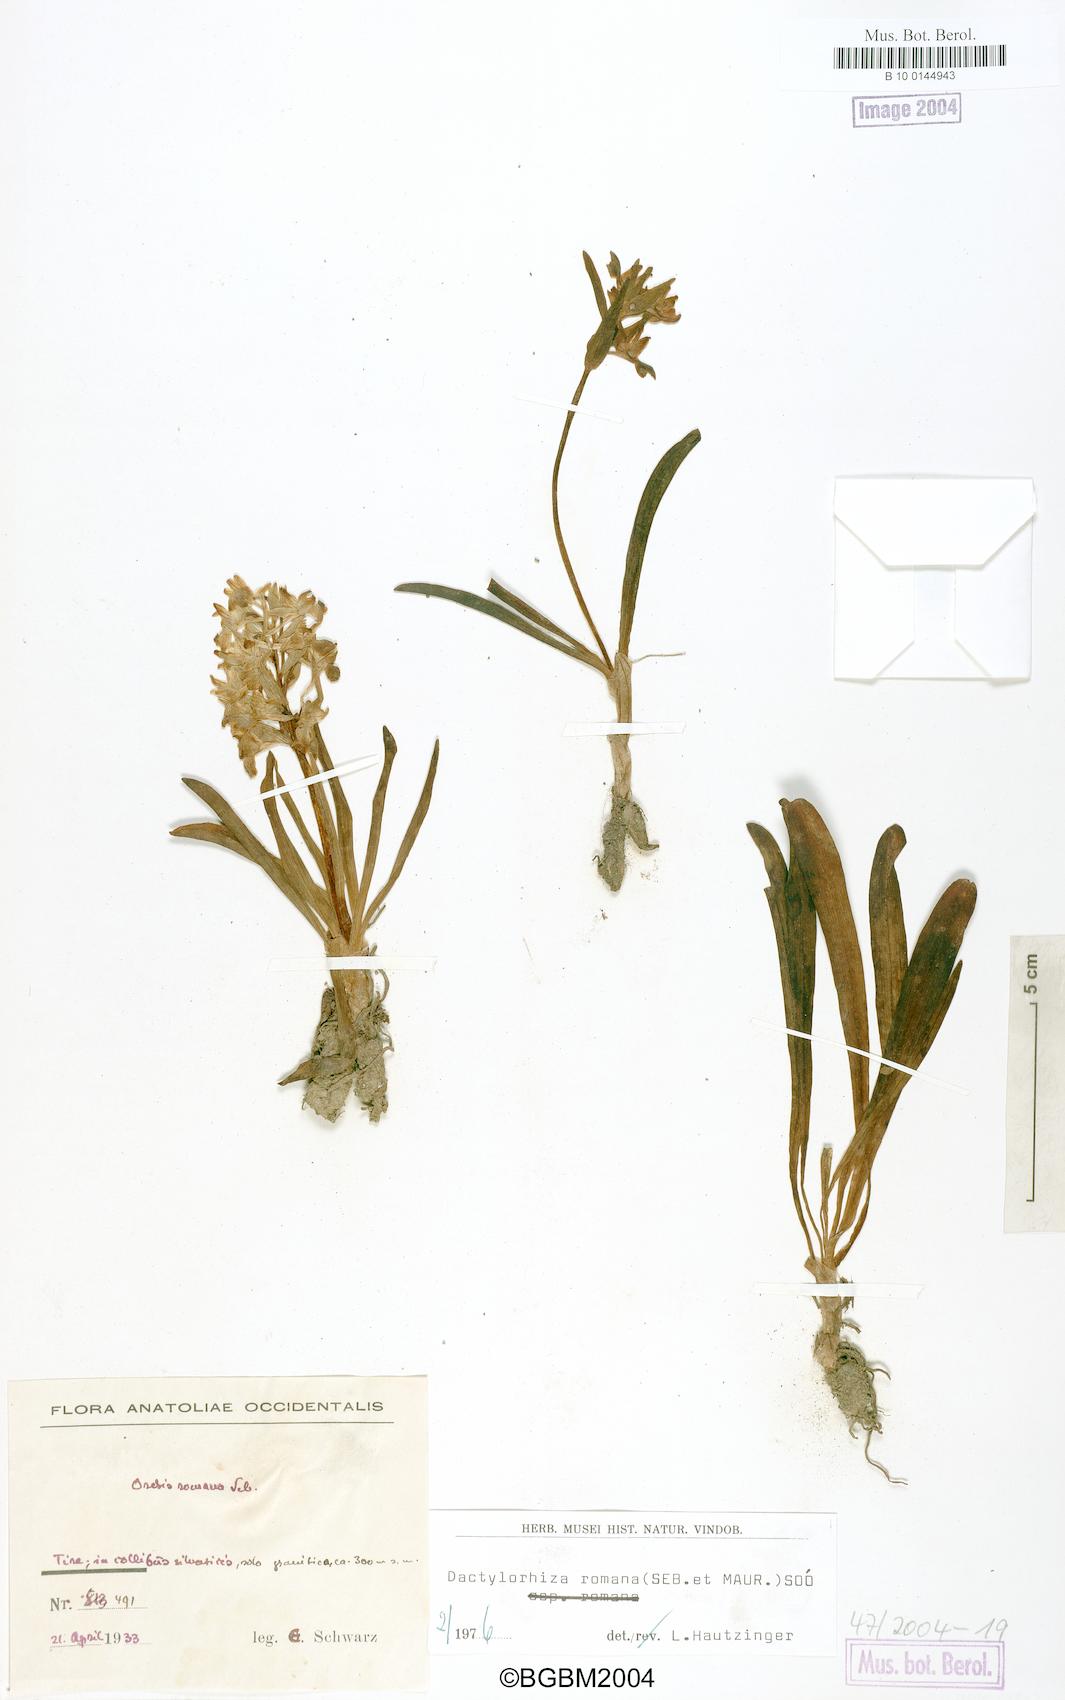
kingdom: Plantae
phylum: Tracheophyta
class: Liliopsida
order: Asparagales
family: Orchidaceae
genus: Dactylorhiza
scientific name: Dactylorhiza romana
